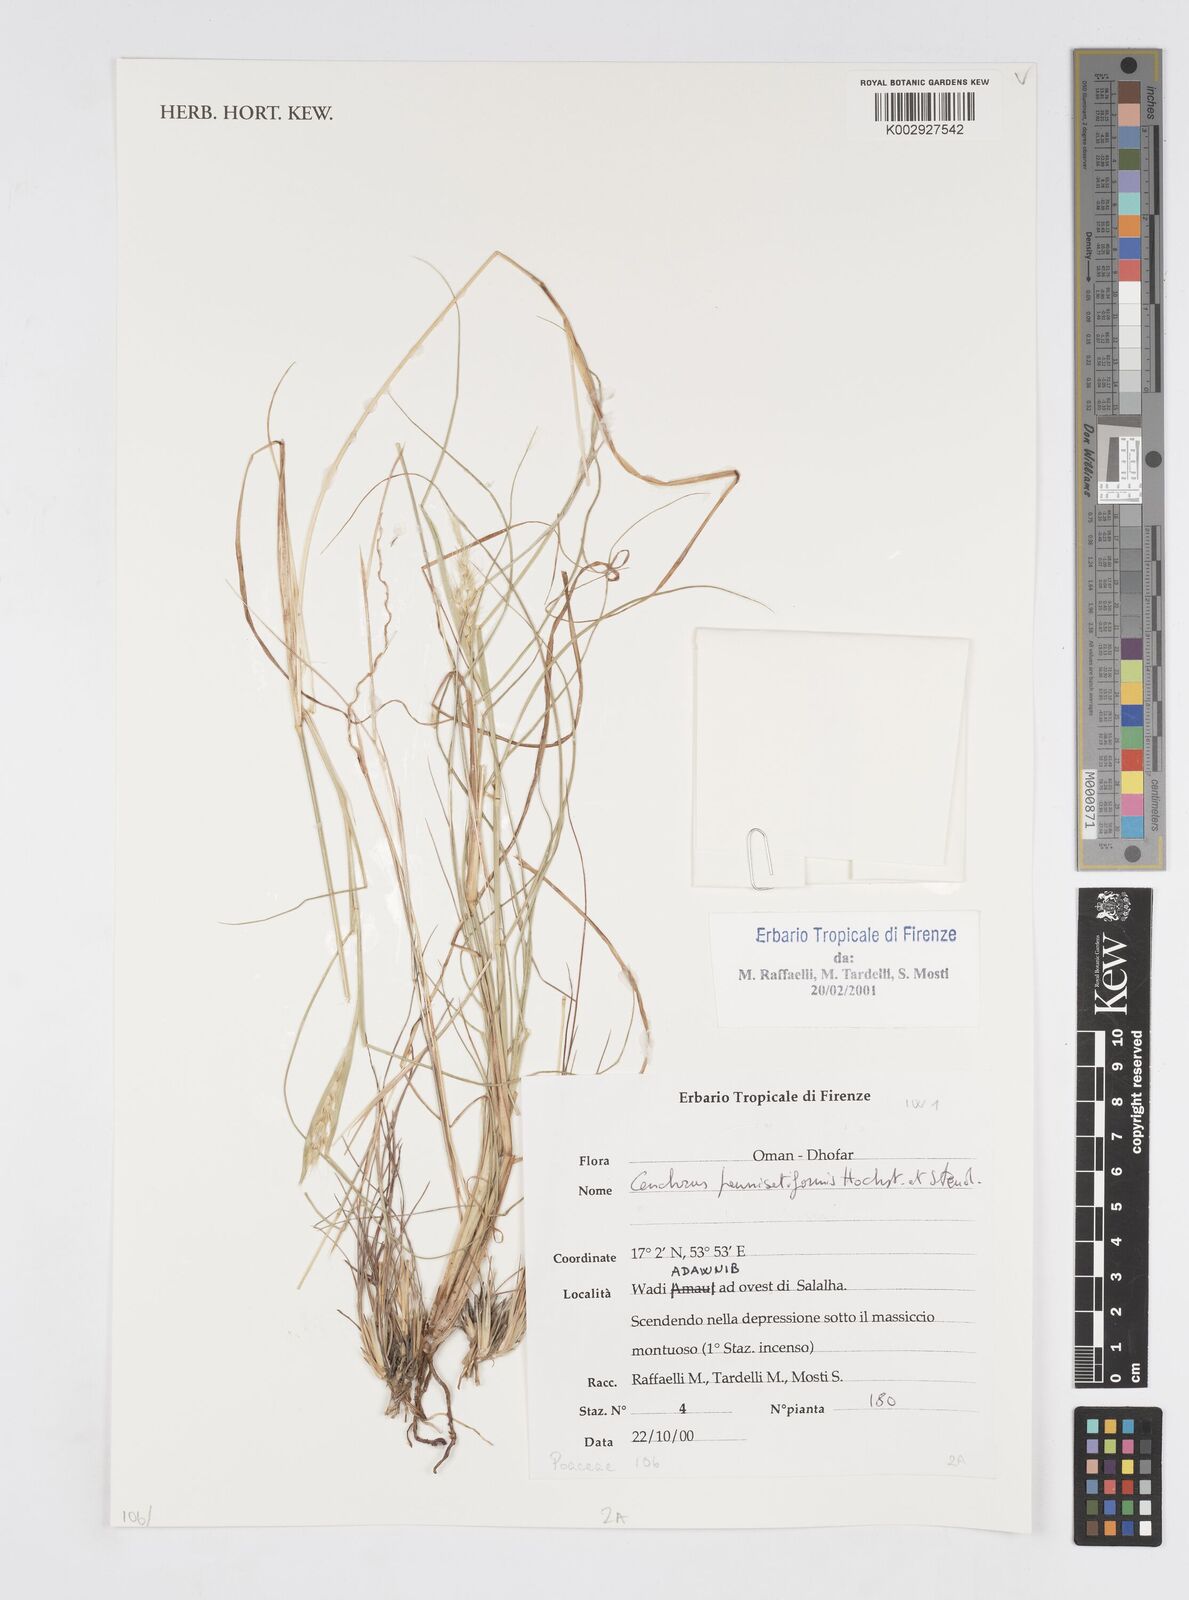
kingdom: Plantae
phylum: Tracheophyta
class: Liliopsida
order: Poales
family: Poaceae
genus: Cenchrus
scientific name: Cenchrus pennisetiformis
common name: Cloncurry
